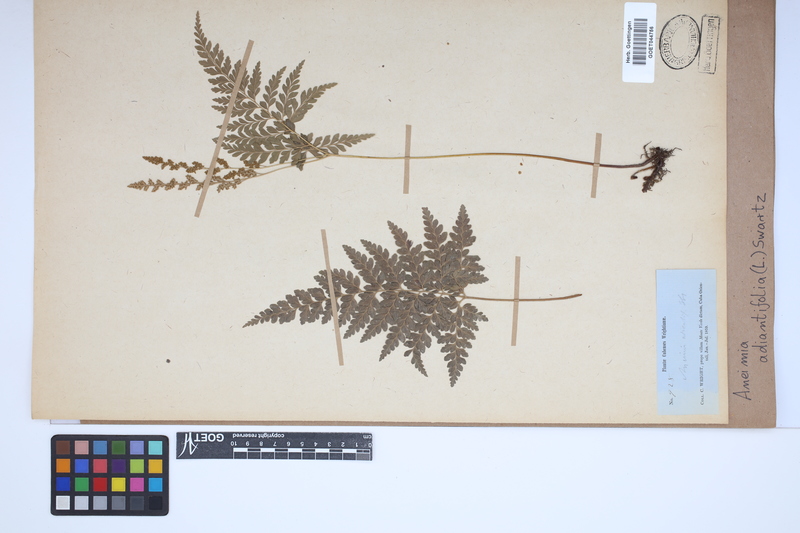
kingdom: Plantae
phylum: Tracheophyta
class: Polypodiopsida
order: Schizaeales
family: Anemiaceae
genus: Anemia
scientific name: Anemia adiantifolia
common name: Pine fern
